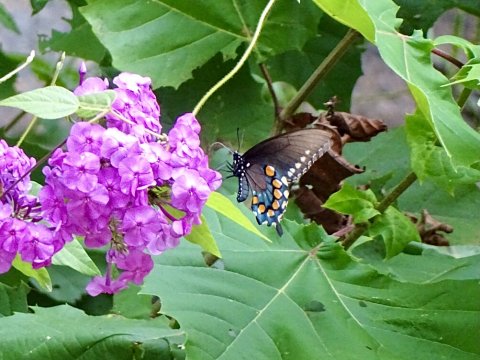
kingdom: Animalia
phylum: Arthropoda
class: Insecta
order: Lepidoptera
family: Papilionidae
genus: Battus
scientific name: Battus philenor
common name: Pipevine Swallowtail
